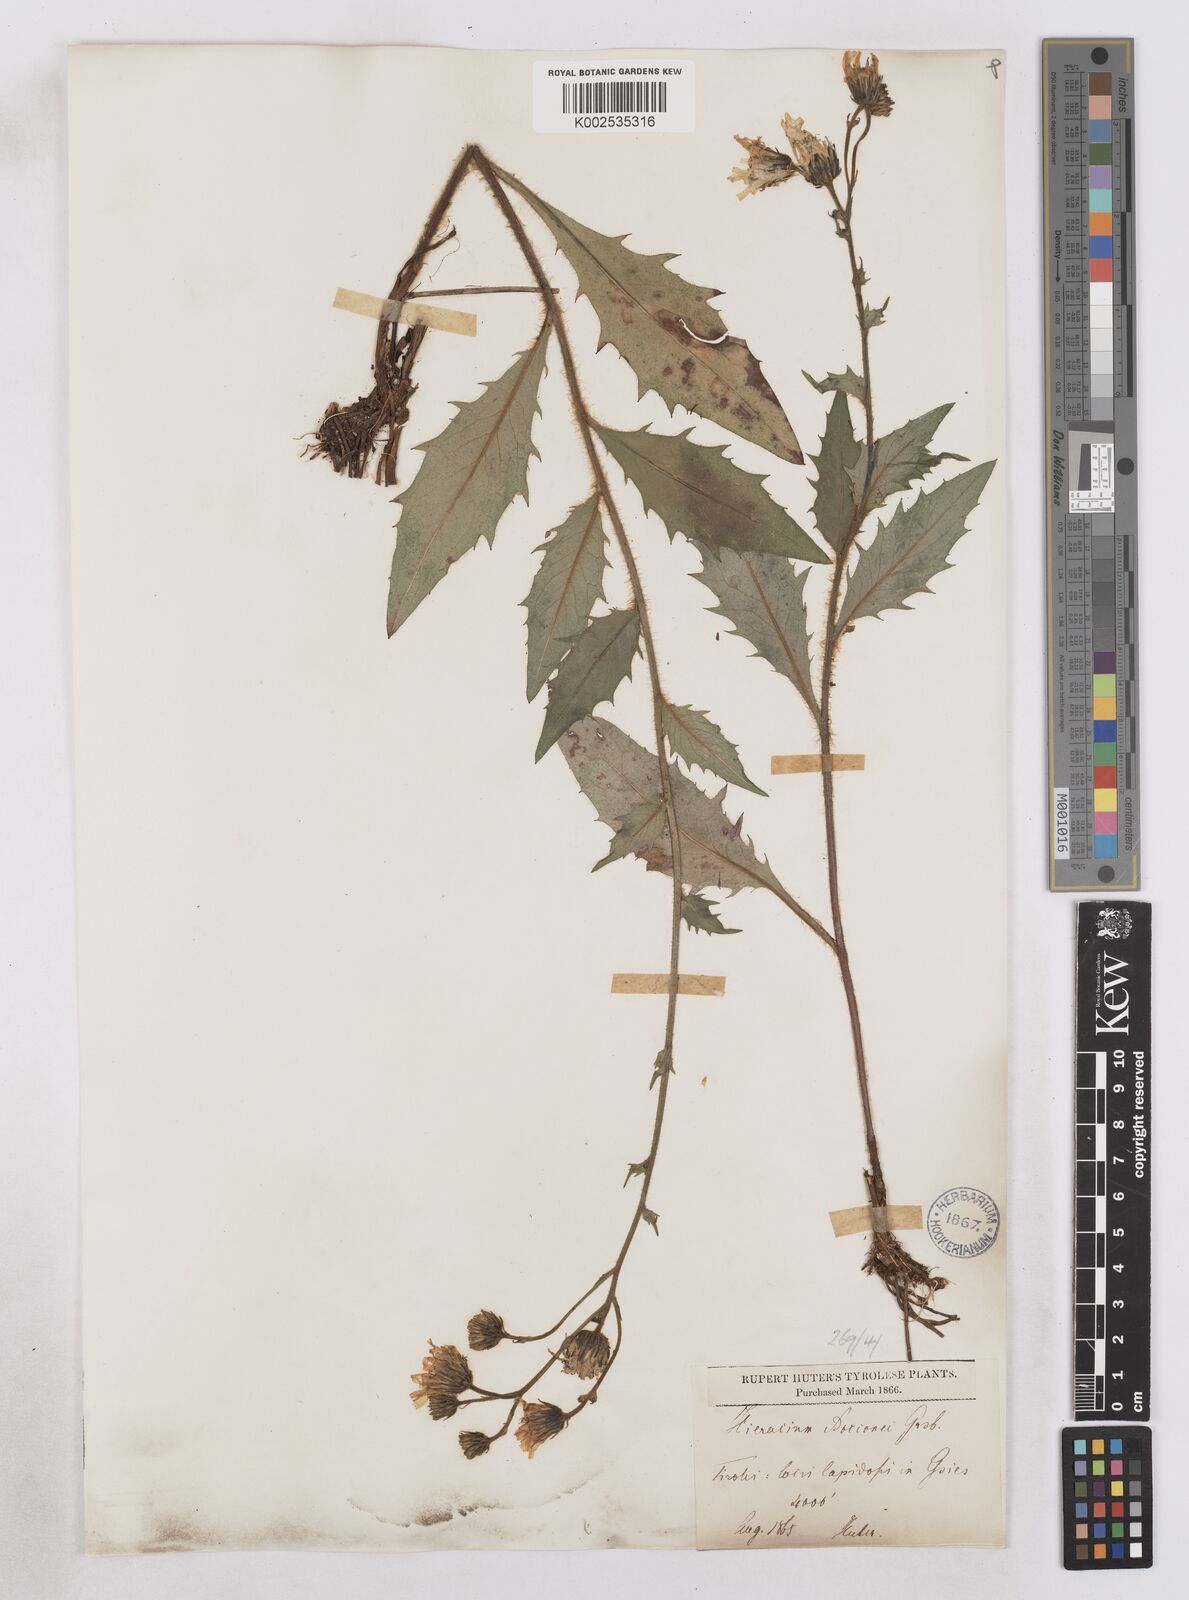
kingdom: Plantae
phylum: Tracheophyta
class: Magnoliopsida
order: Asterales
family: Asteraceae
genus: Hieracium
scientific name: Hieracium simia
